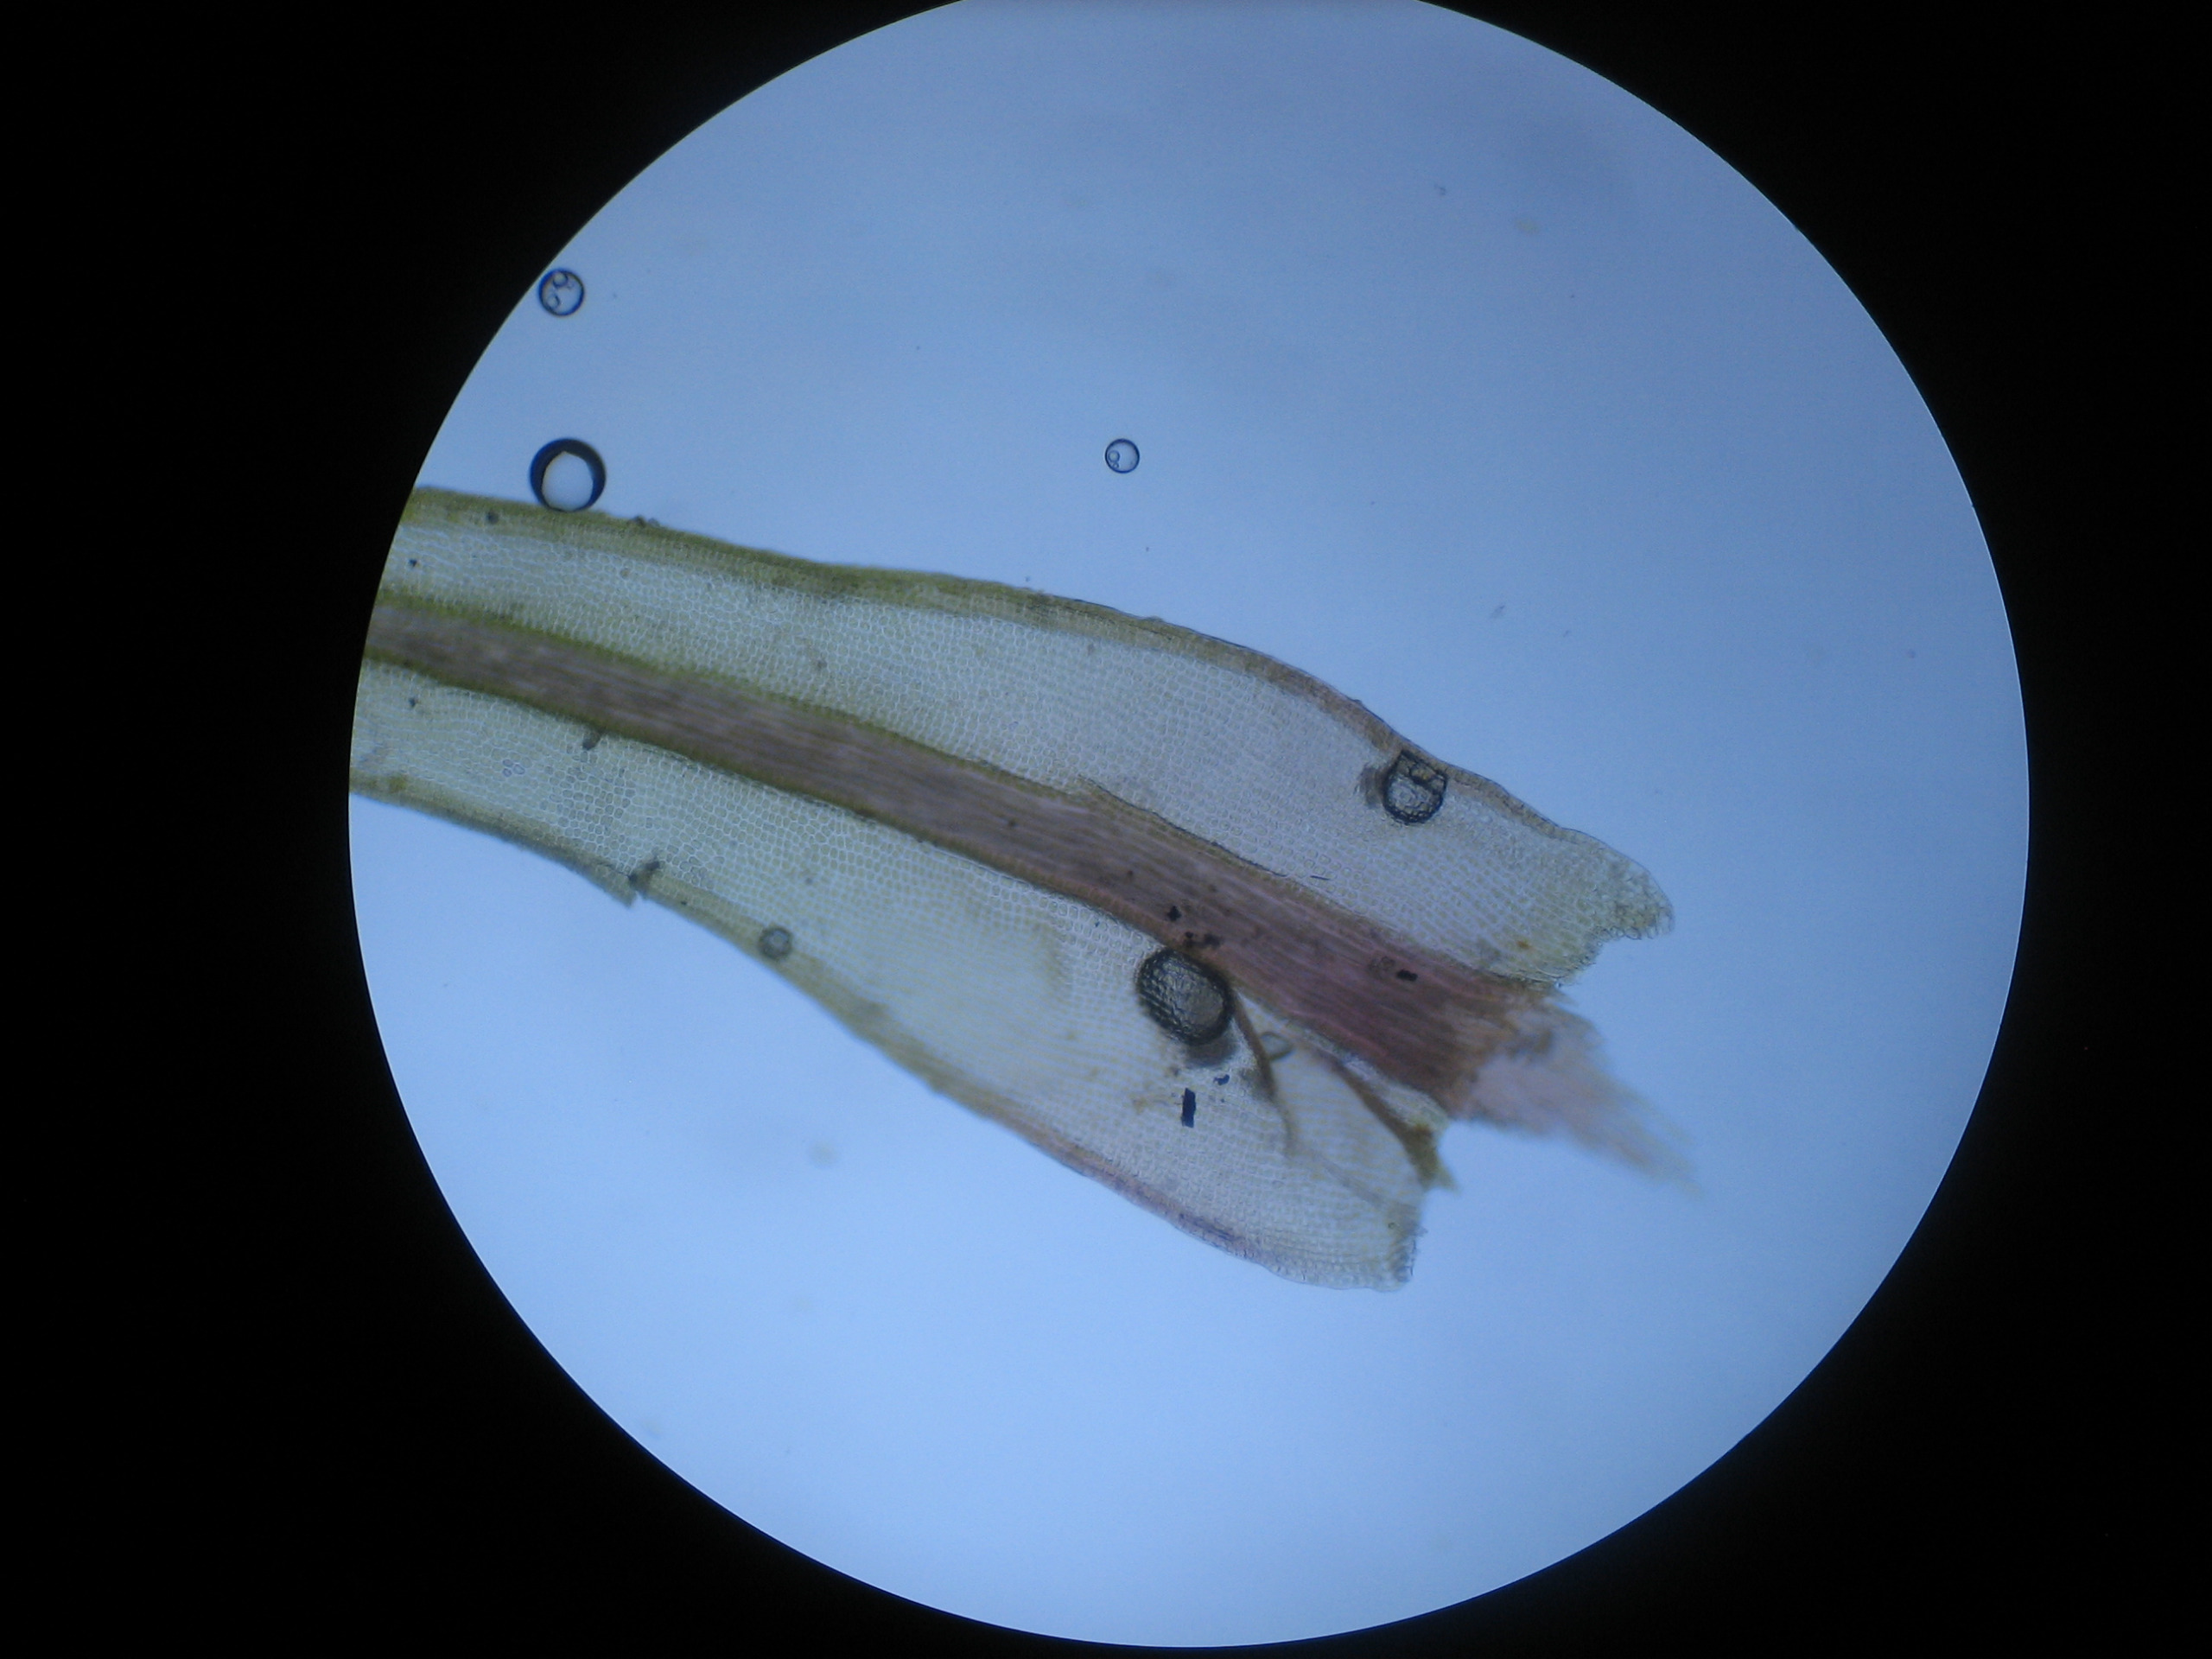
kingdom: Plantae
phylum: Bryophyta
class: Bryopsida
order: Dicranales
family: Ditrichaceae
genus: Ceratodon
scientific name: Ceratodon purpureus
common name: Rød horntand
